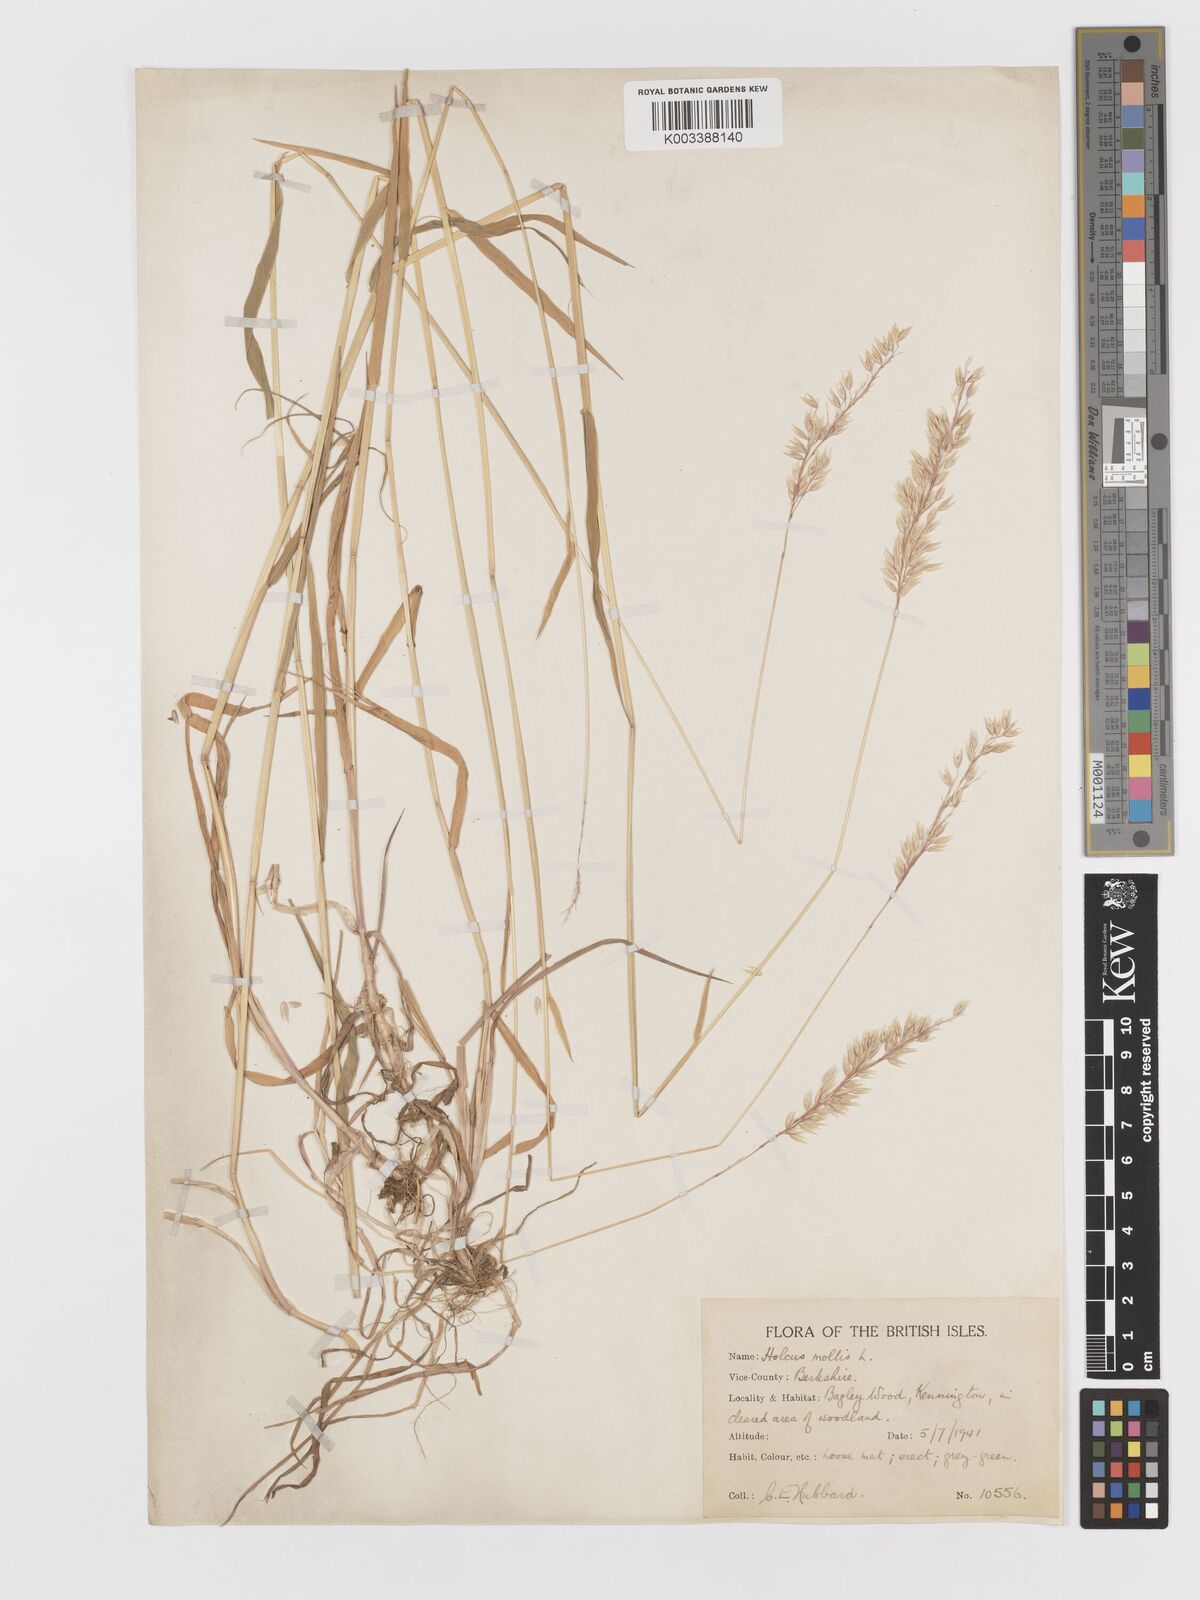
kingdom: Plantae
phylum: Tracheophyta
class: Liliopsida
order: Poales
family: Poaceae
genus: Holcus
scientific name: Holcus mollis
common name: Creeping velvetgrass
